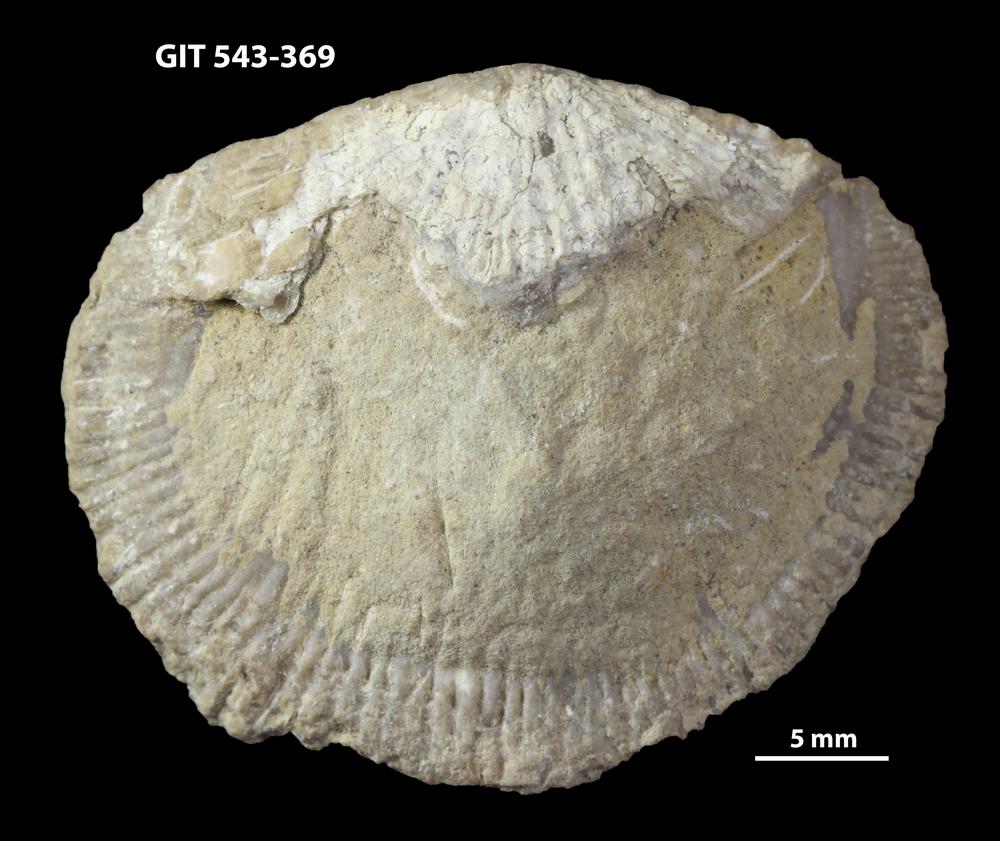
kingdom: Animalia
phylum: Brachiopoda
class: Rhynchonellata
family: Clitambonitidae
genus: Clitambonites
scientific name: Clitambonites Orthisina schmidti
